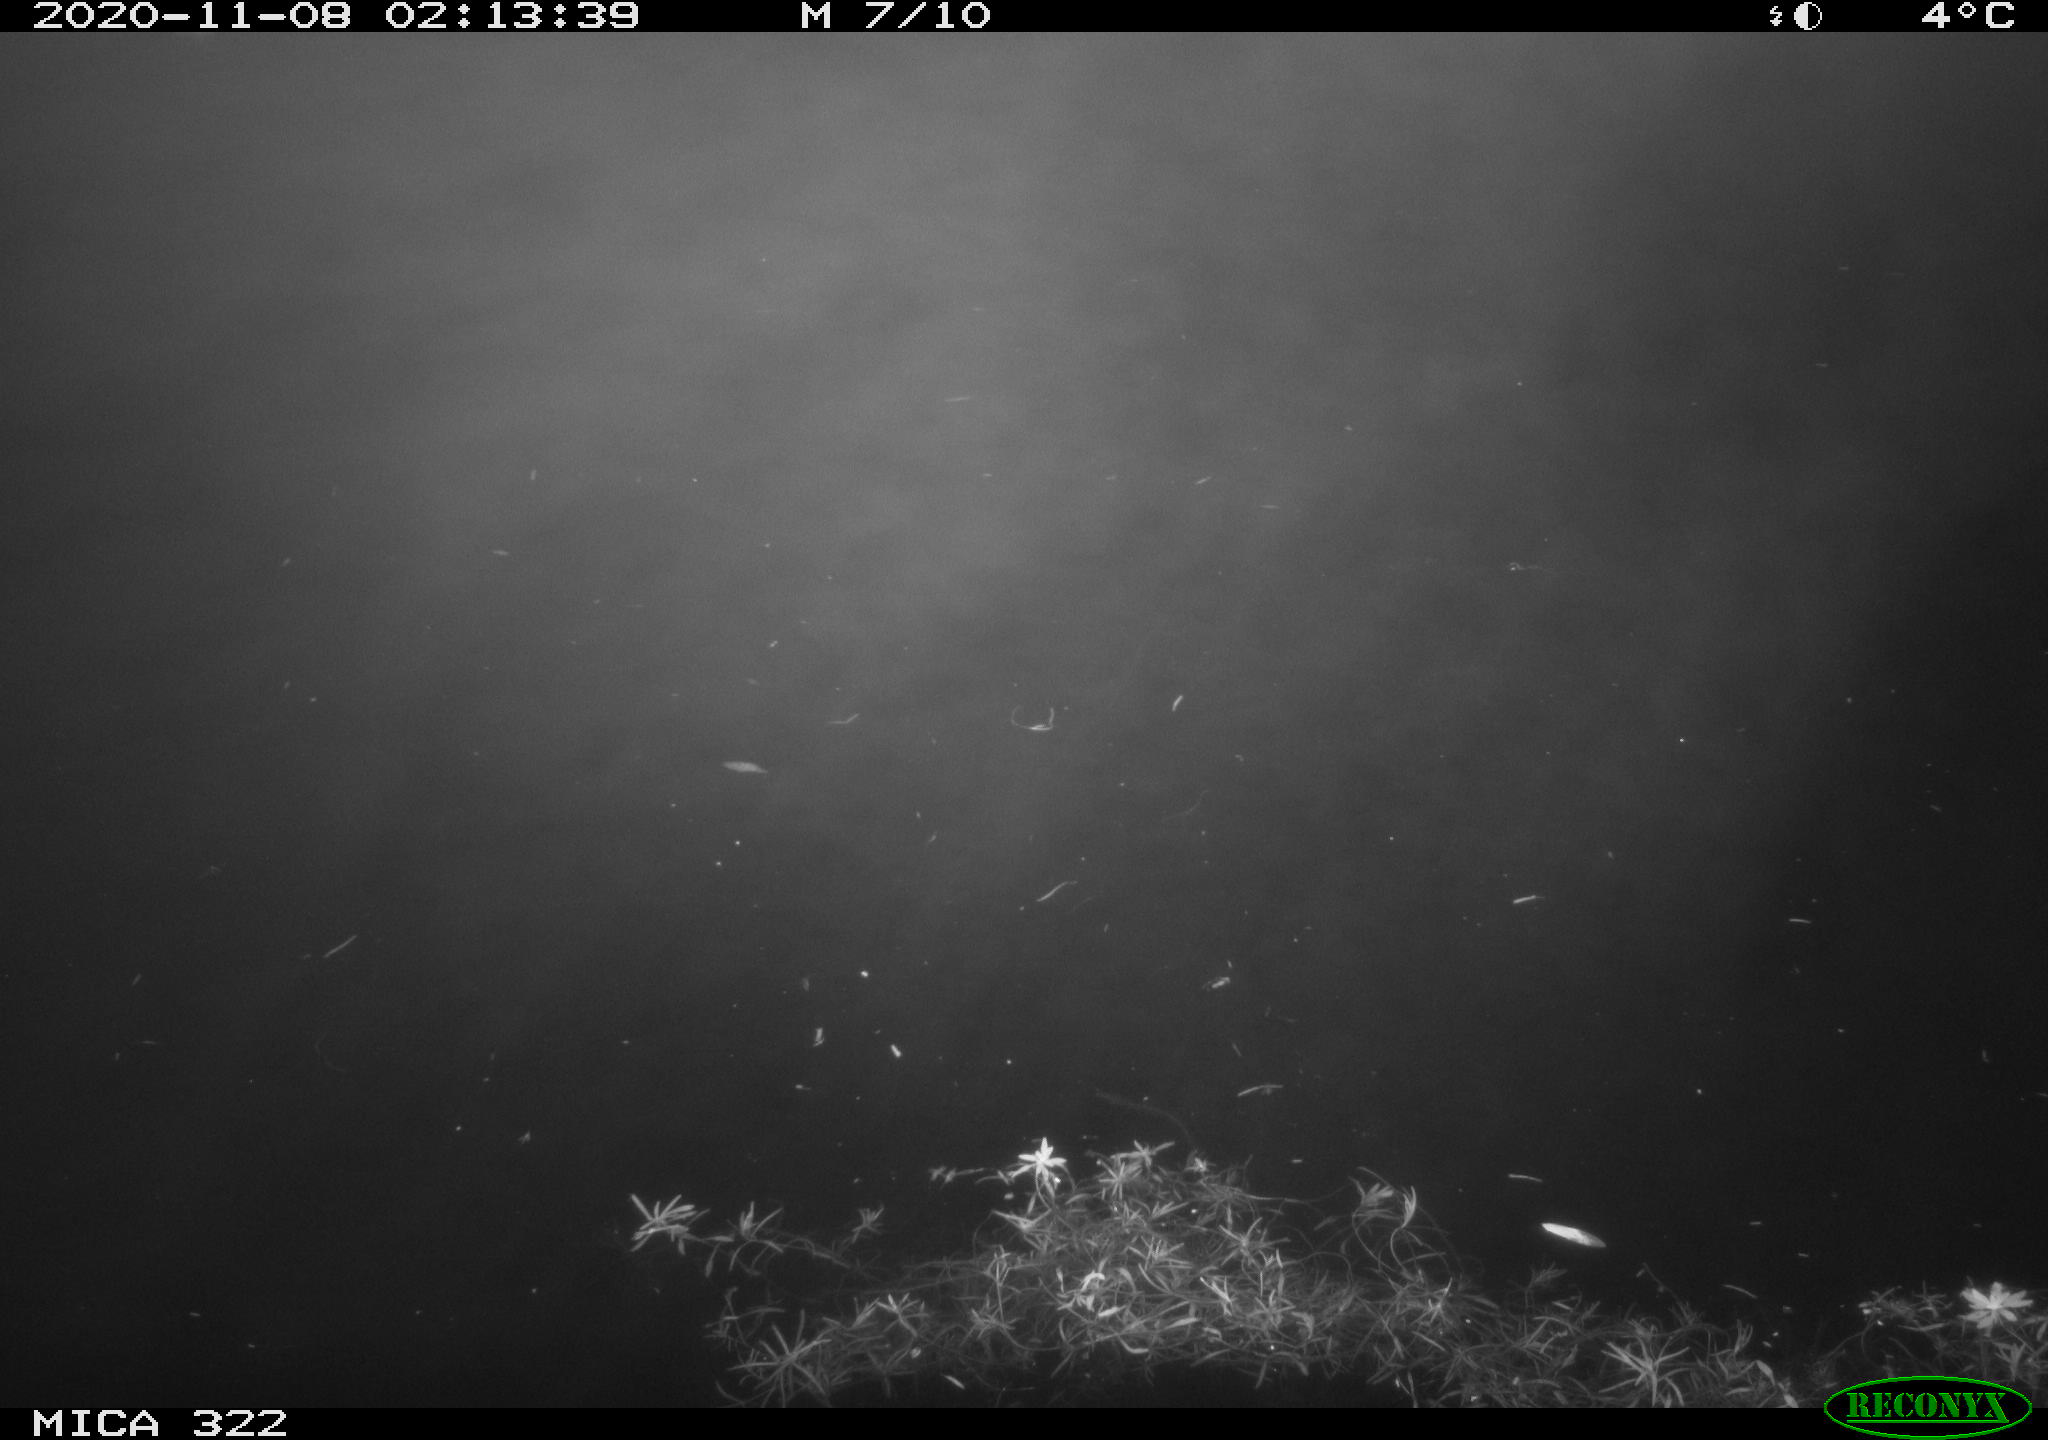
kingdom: Animalia
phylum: Chordata
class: Mammalia
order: Rodentia
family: Muridae
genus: Rattus
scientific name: Rattus norvegicus
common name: Brown rat
